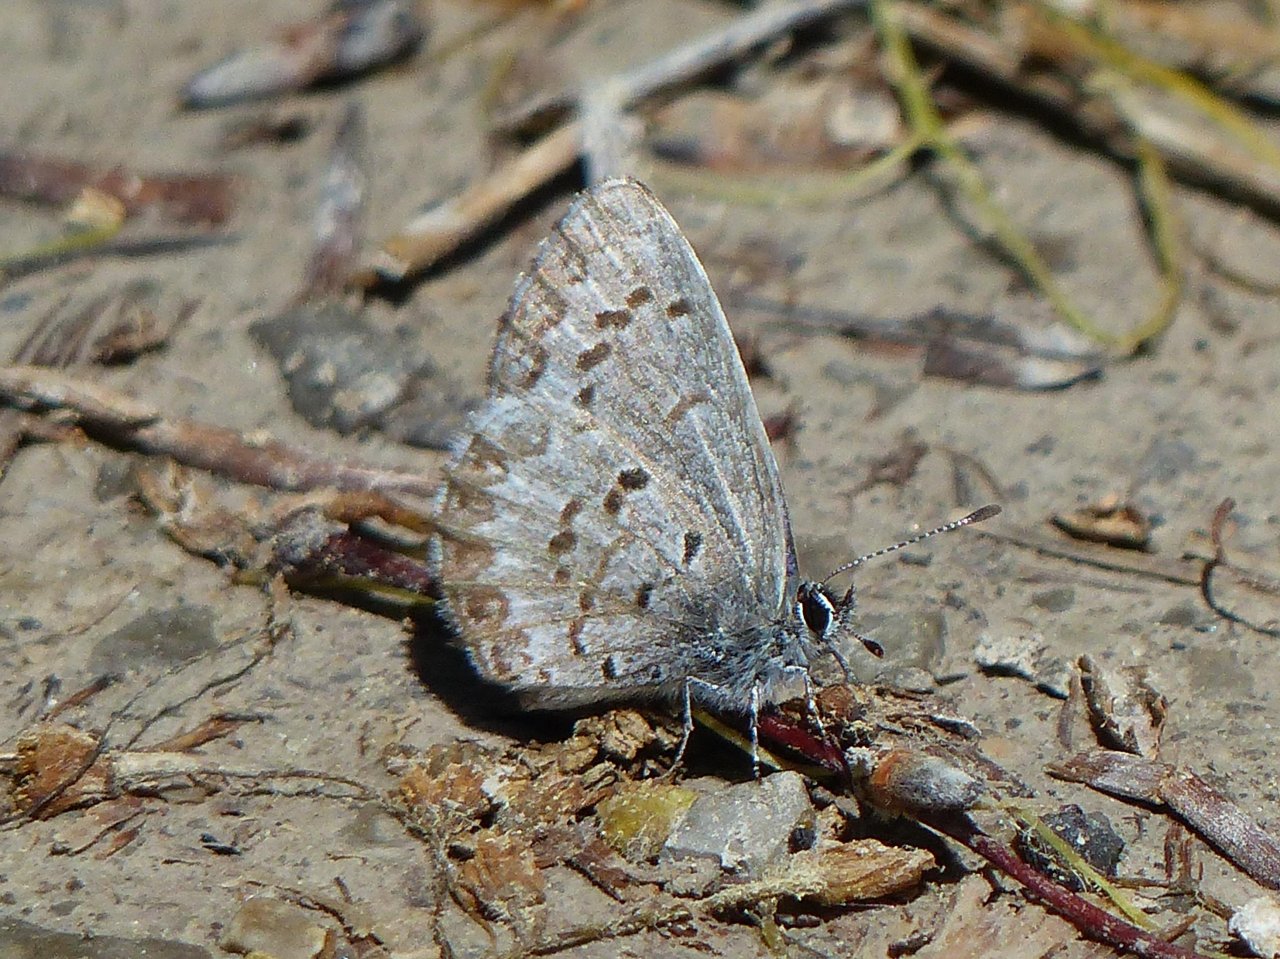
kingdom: Animalia
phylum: Arthropoda
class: Insecta
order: Lepidoptera
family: Lycaenidae
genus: Celastrina
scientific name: Celastrina lucia
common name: Northern Spring Azure
